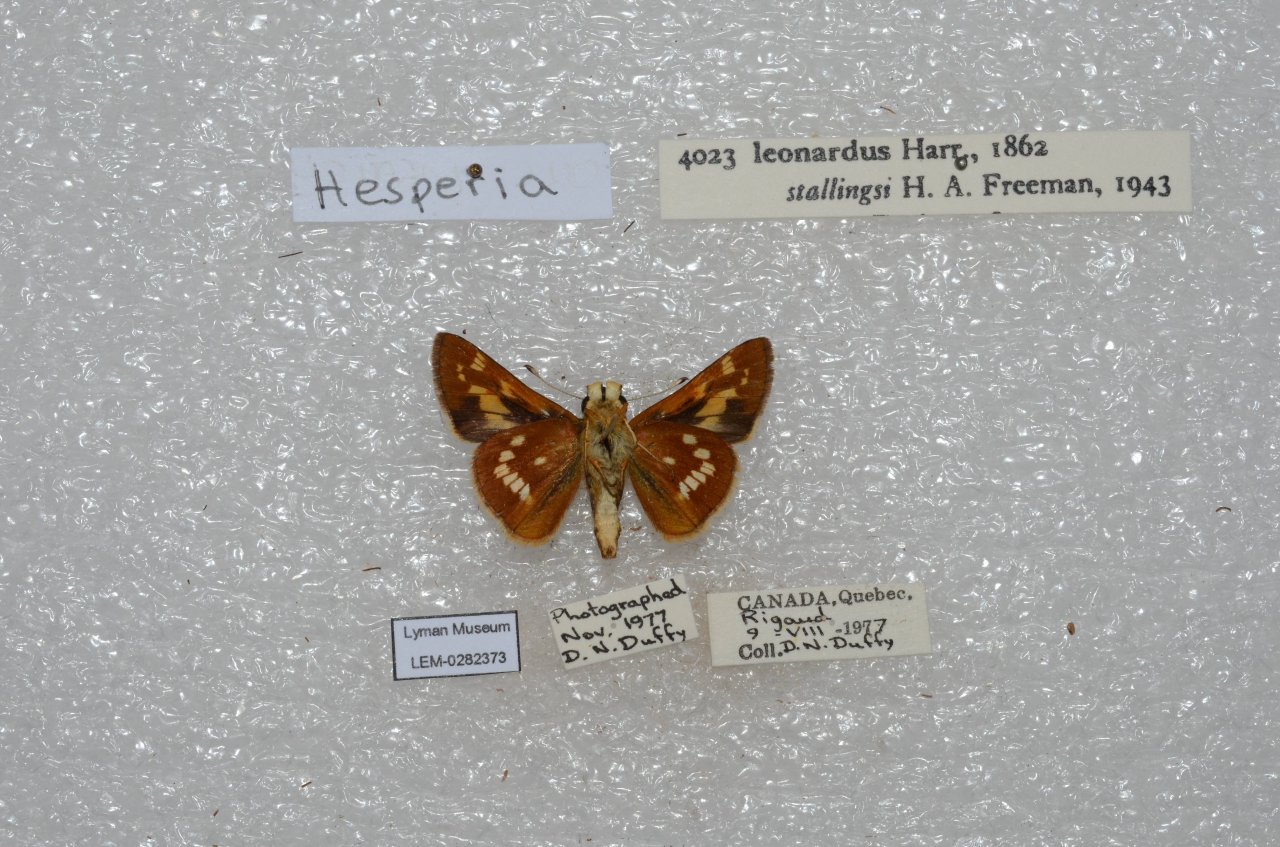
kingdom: Animalia
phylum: Arthropoda
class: Insecta
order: Lepidoptera
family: Hesperiidae
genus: Hesperia
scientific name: Hesperia leonardus
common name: Leonard's Skipper
